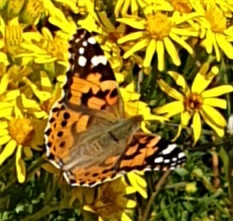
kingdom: Animalia
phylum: Arthropoda
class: Insecta
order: Lepidoptera
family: Nymphalidae
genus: Vanessa
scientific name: Vanessa cardui
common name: Tidselsommerfugl
